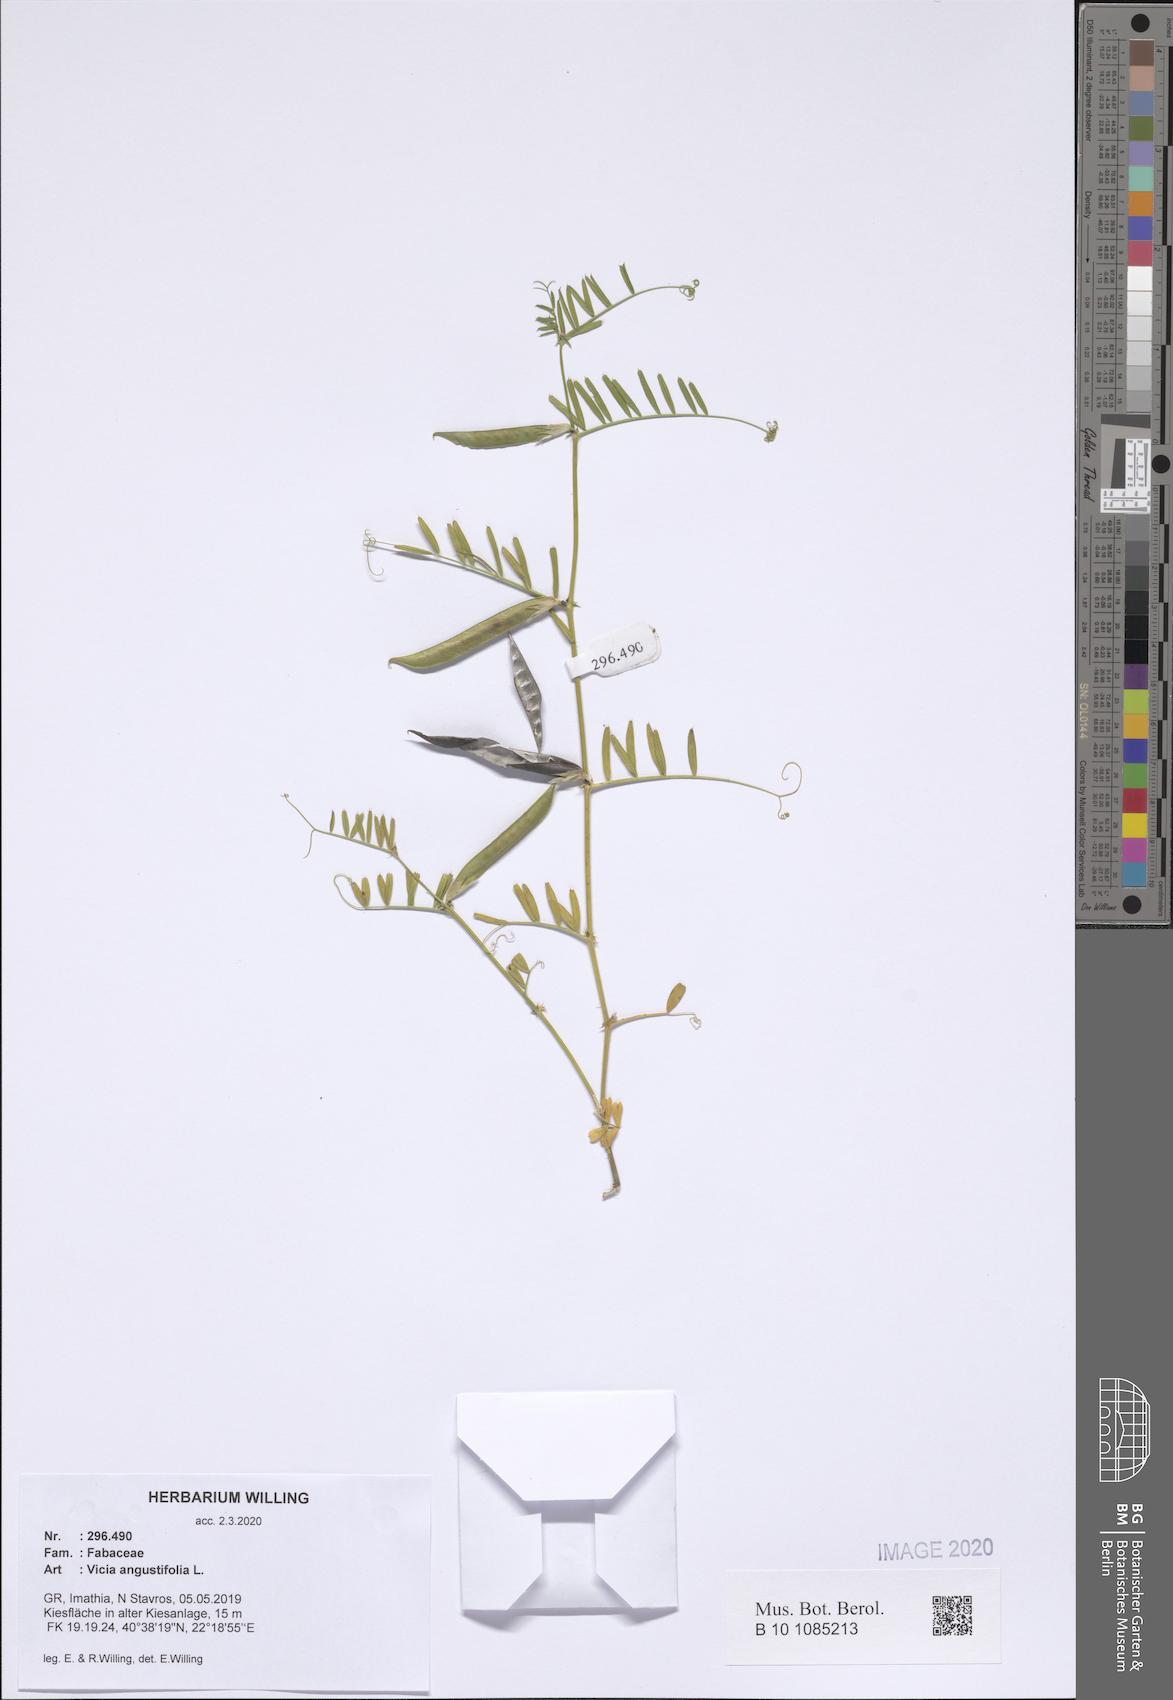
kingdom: Plantae
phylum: Tracheophyta
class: Magnoliopsida
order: Fabales
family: Fabaceae
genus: Vicia
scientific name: Vicia sativa
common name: Garden vetch
